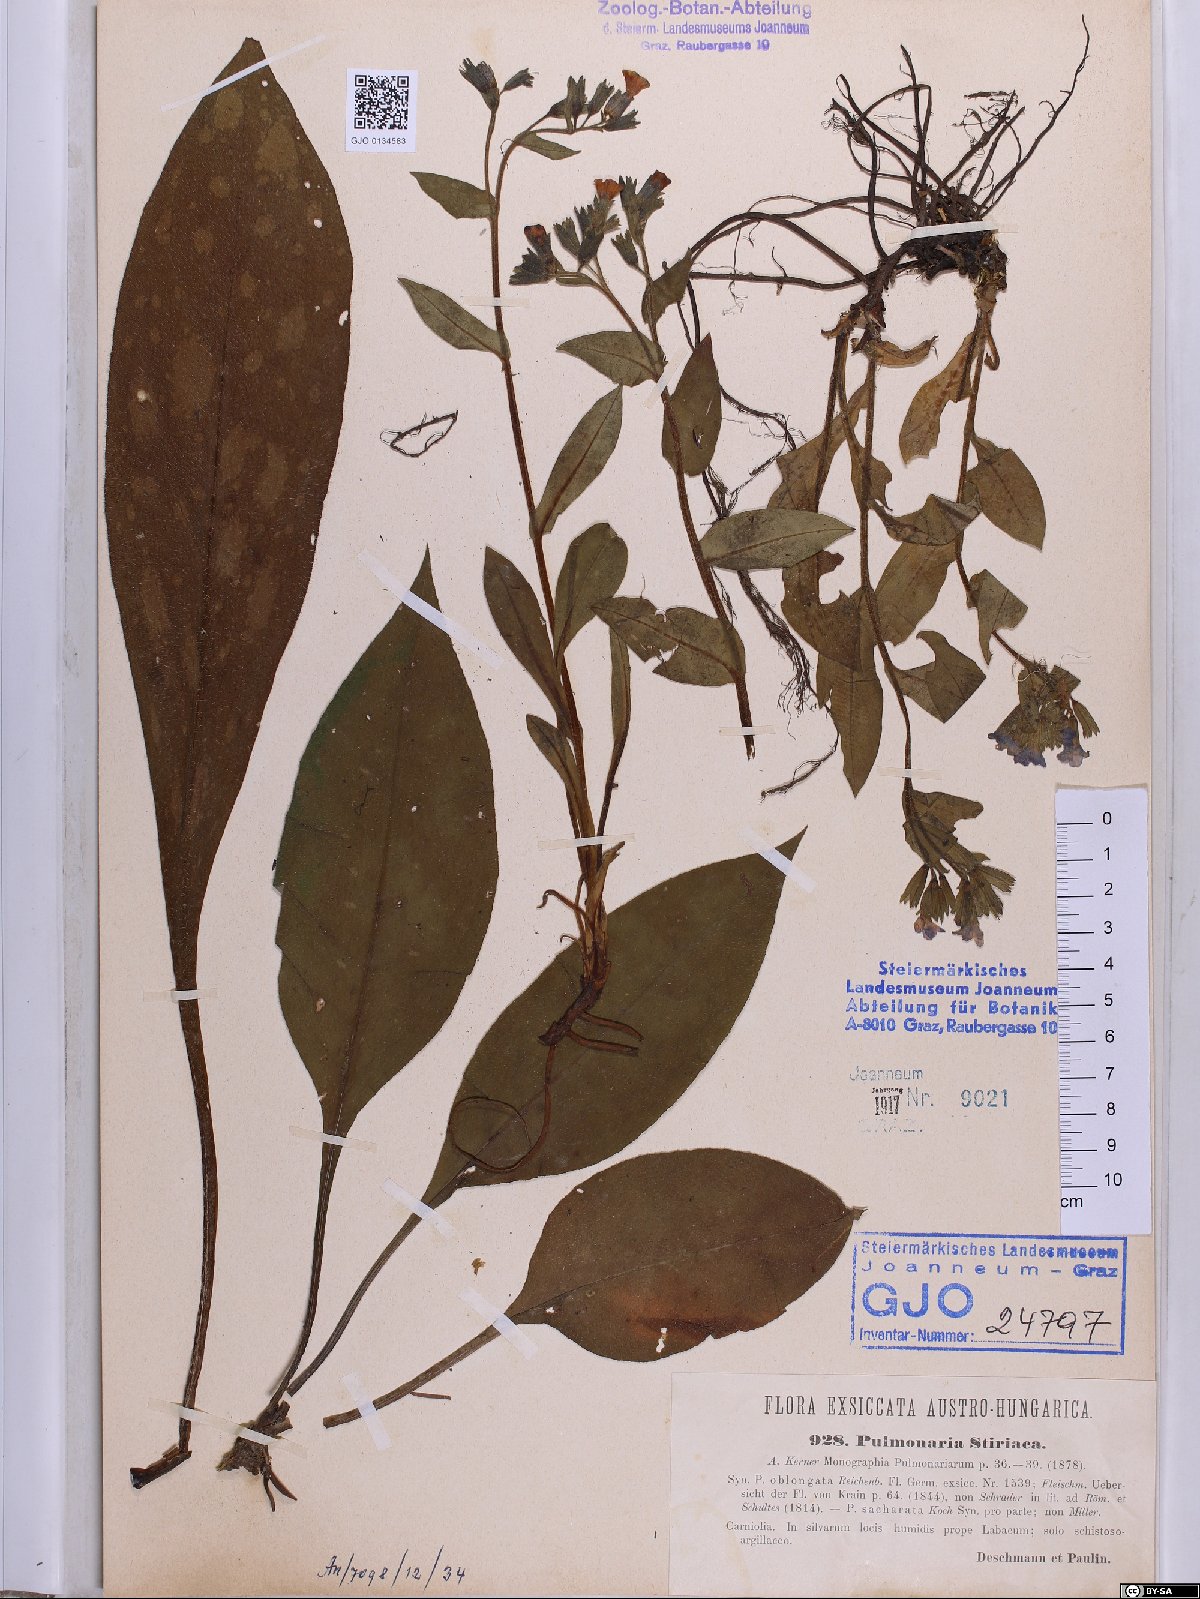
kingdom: Plantae
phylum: Tracheophyta
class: Magnoliopsida
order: Boraginales
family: Boraginaceae
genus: Pulmonaria
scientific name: Pulmonaria stiriaca
